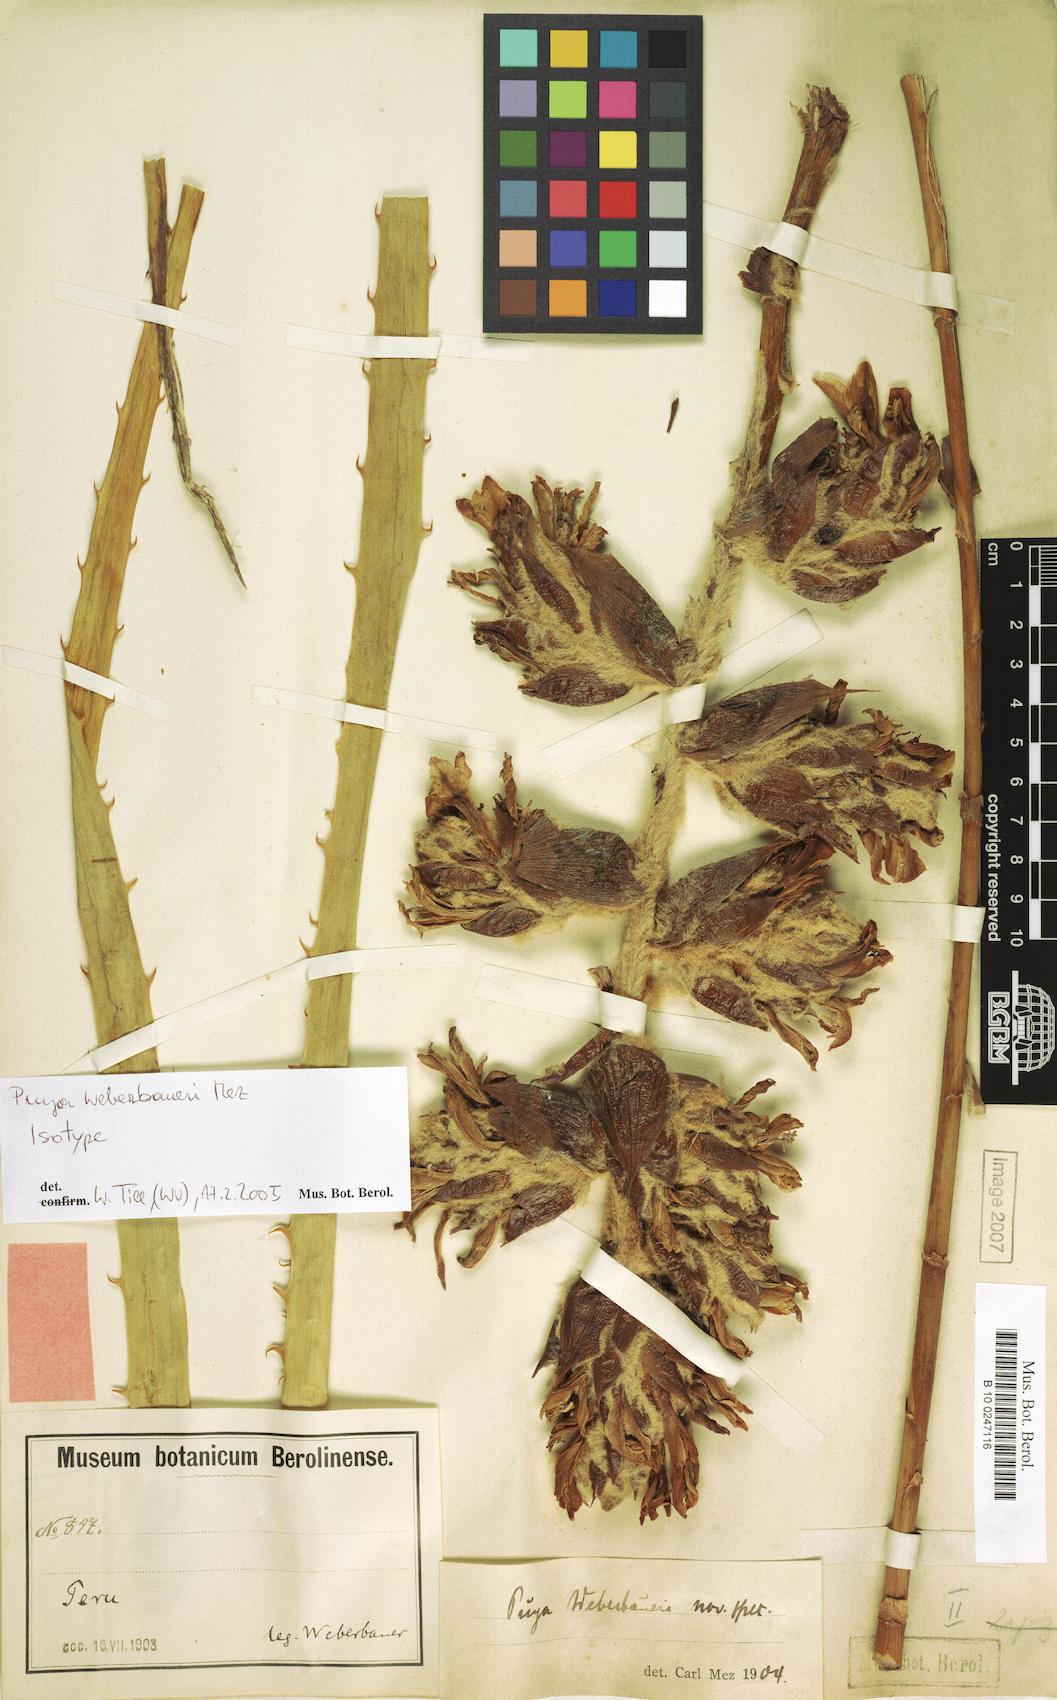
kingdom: Plantae
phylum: Tracheophyta
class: Liliopsida
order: Poales
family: Bromeliaceae
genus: Puya
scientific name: Puya weberbaueri
